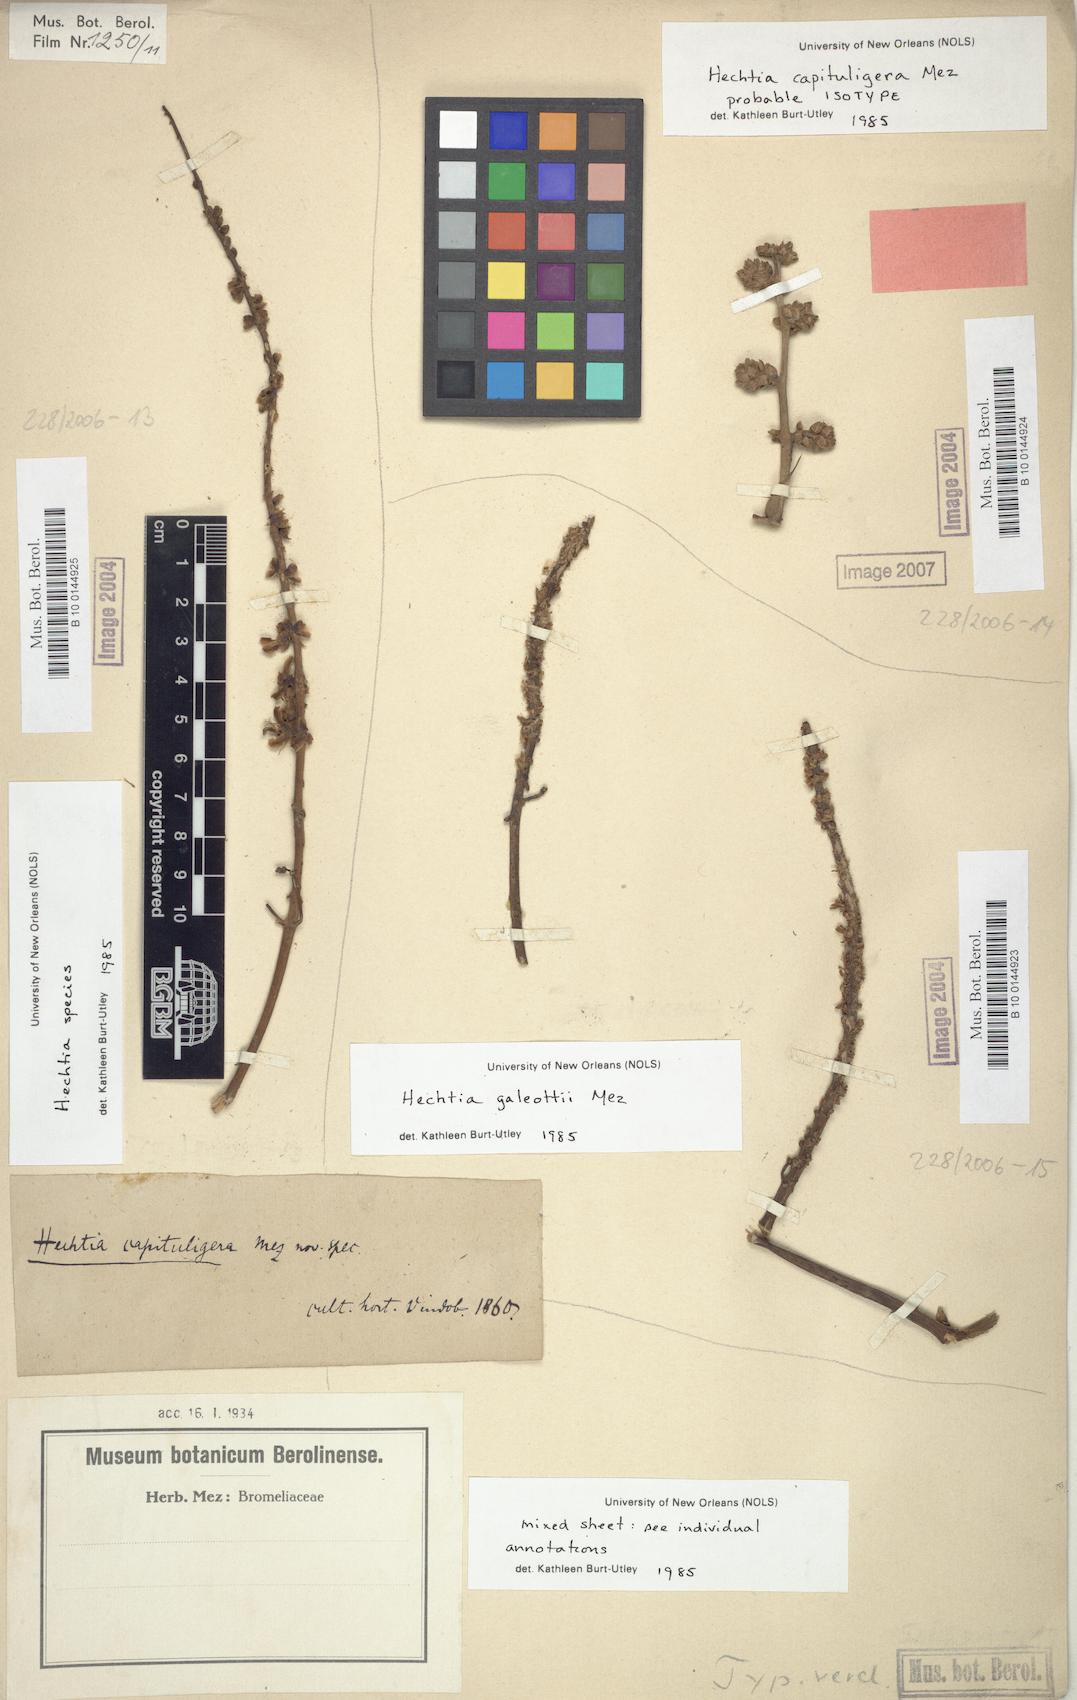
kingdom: Plantae
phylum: Tracheophyta
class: Liliopsida
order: Poales
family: Bromeliaceae
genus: Hechtia
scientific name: Hechtia capituligera
